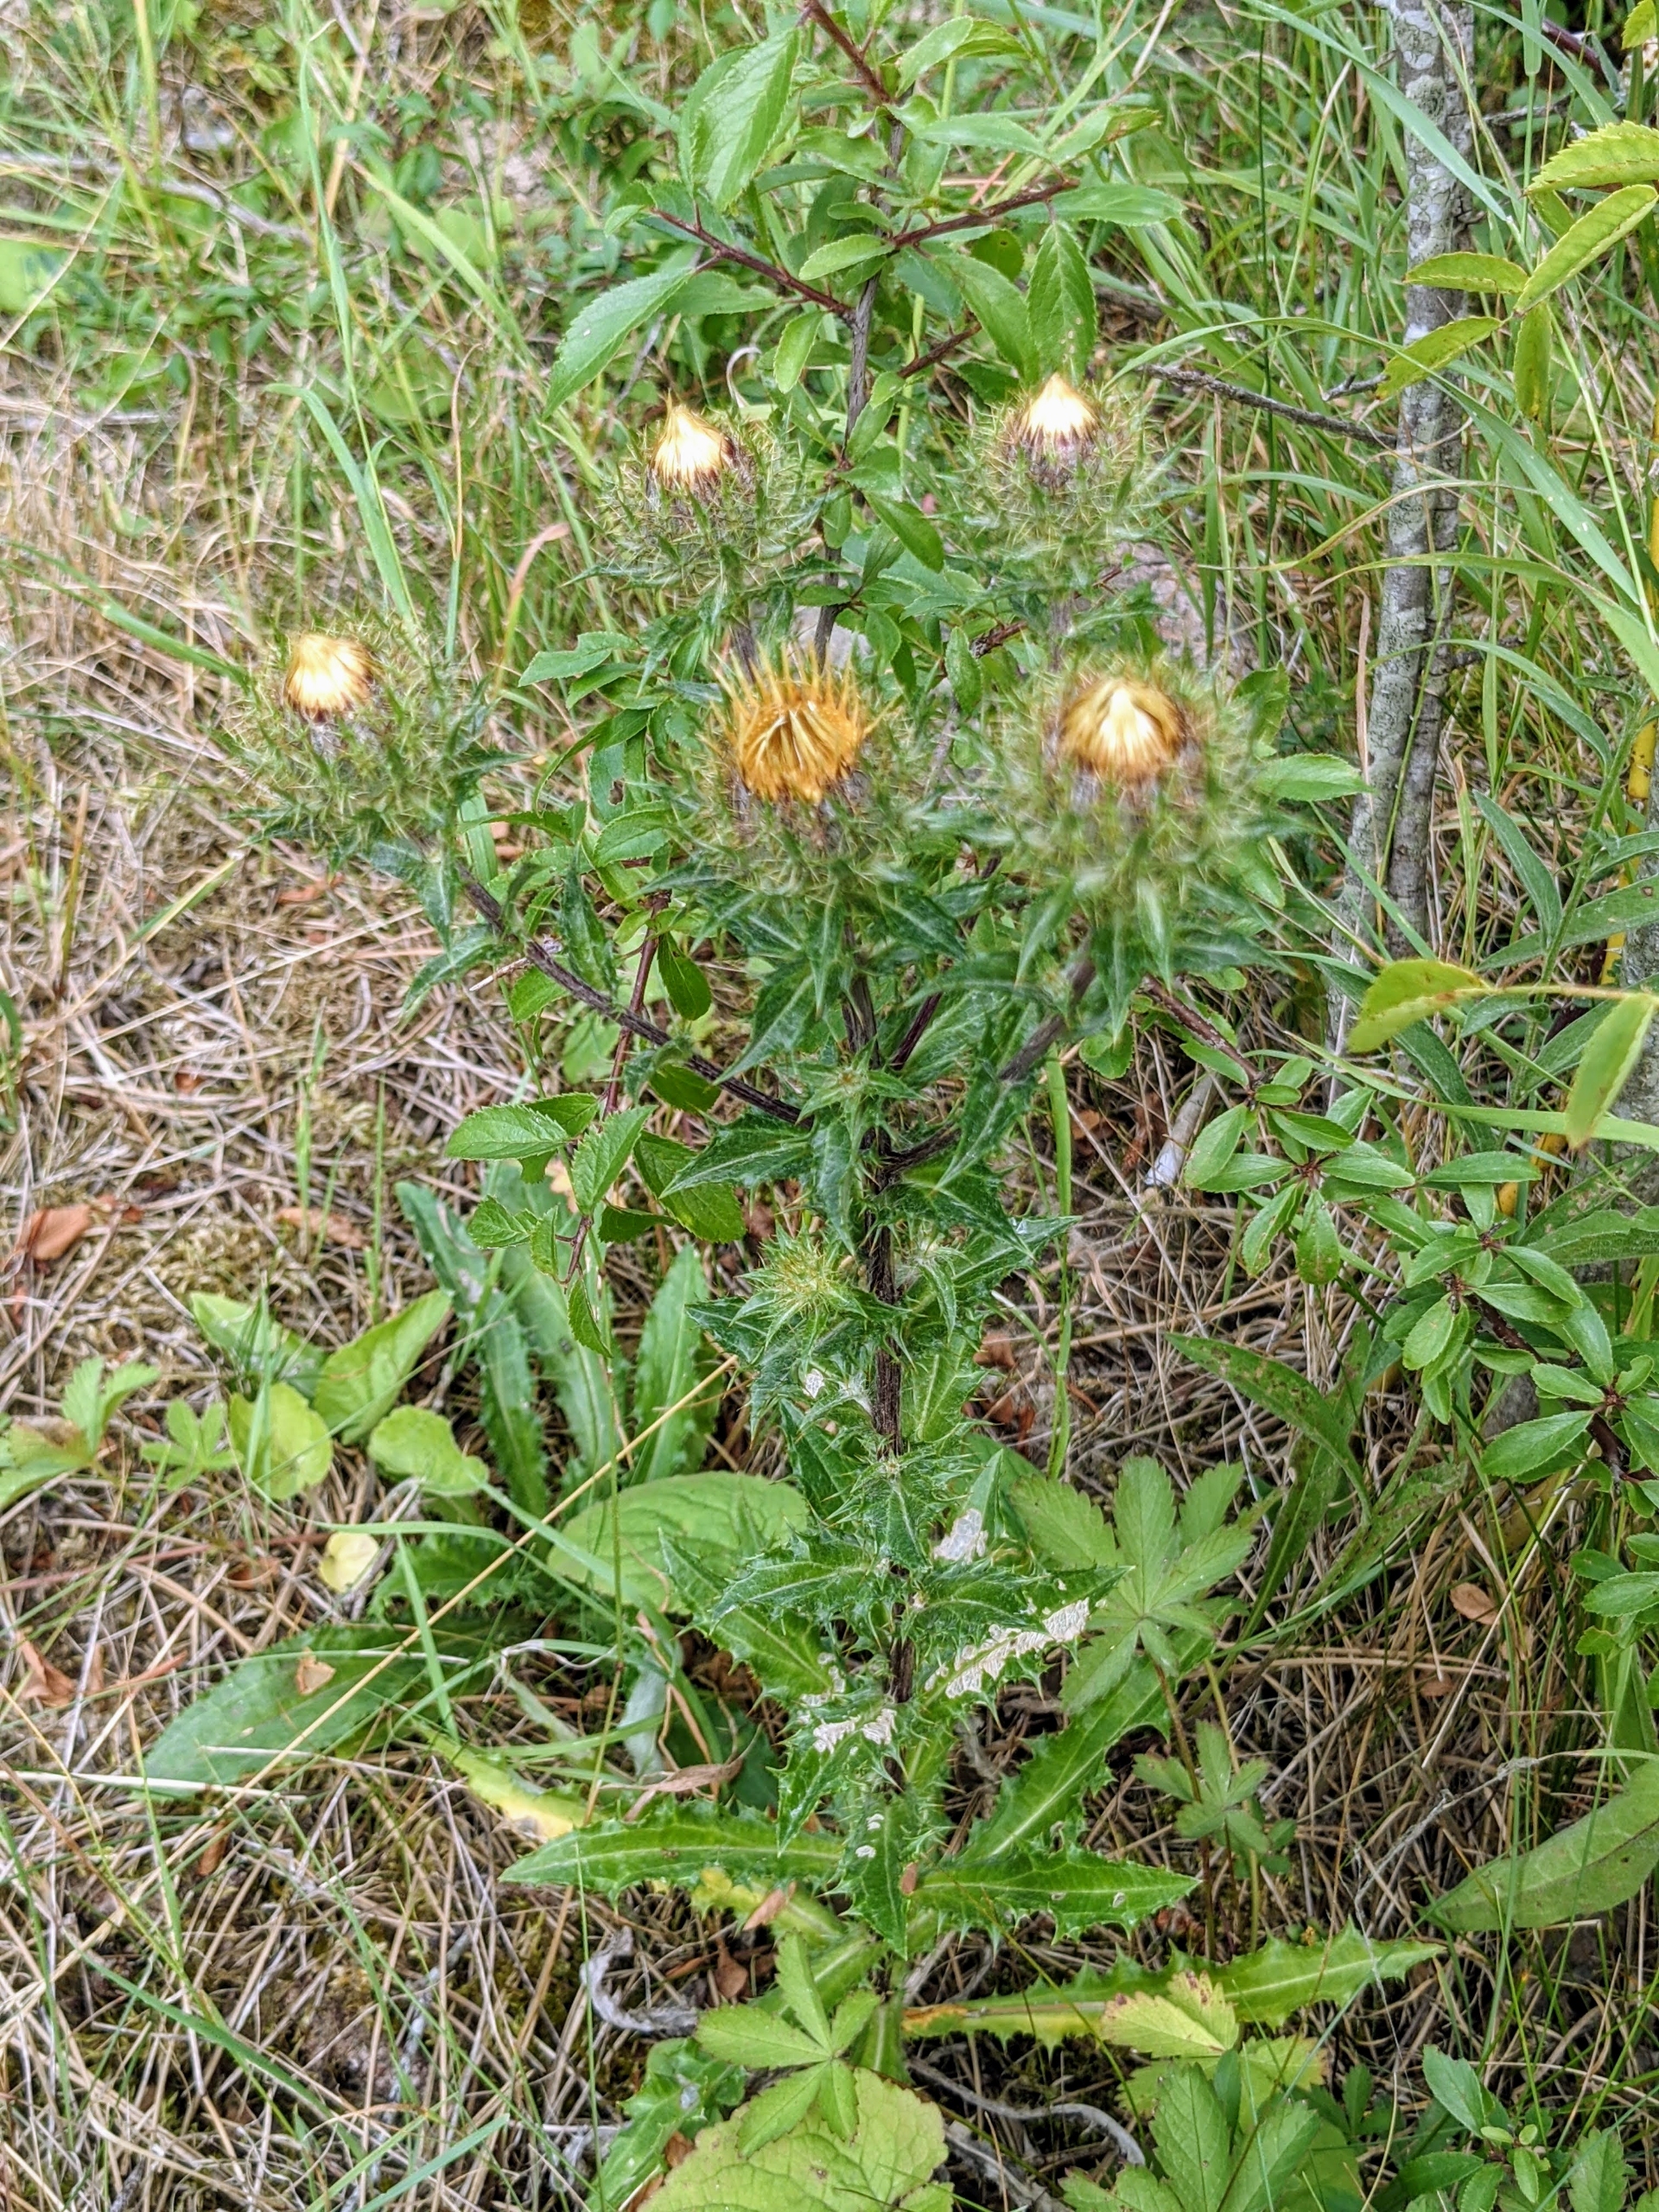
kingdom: Plantae
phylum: Tracheophyta
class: Magnoliopsida
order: Asterales
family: Asteraceae
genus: Carlina
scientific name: Carlina vulgaris
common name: Bakketidsel
